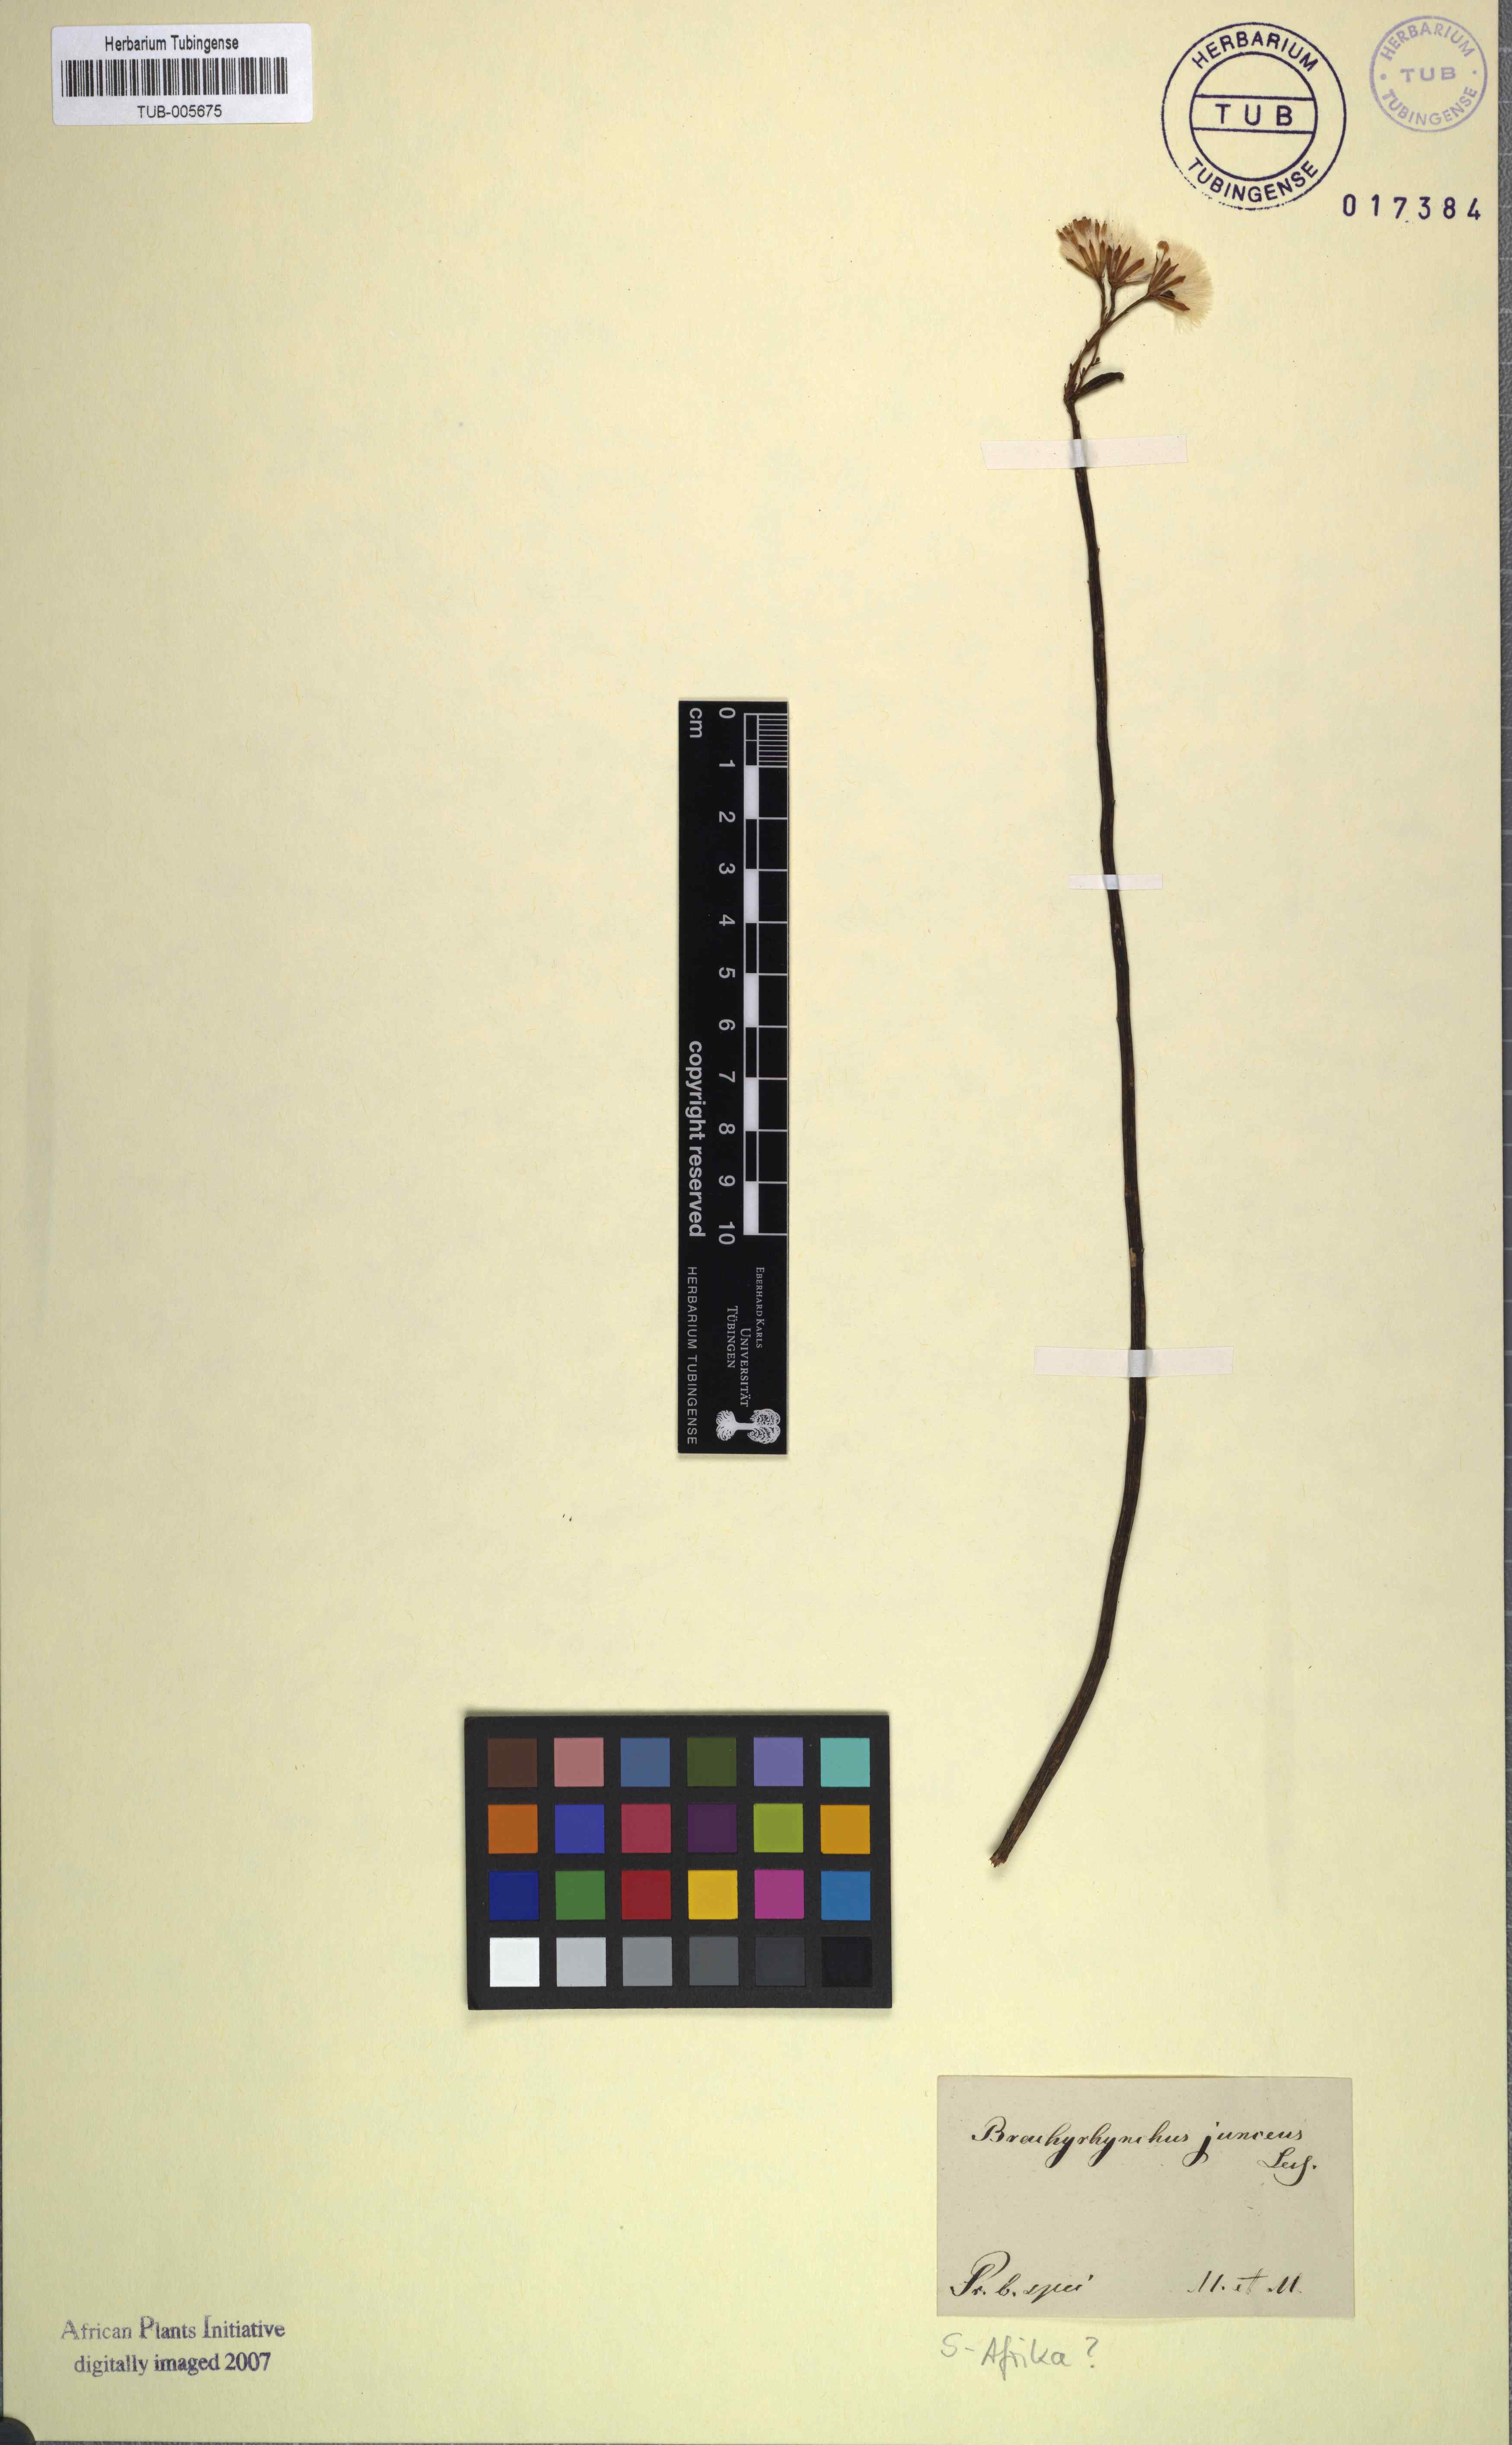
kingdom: Plantae
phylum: Tracheophyta
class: Magnoliopsida
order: Asterales
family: Asteraceae
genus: Senecio
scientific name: Senecio junceus
